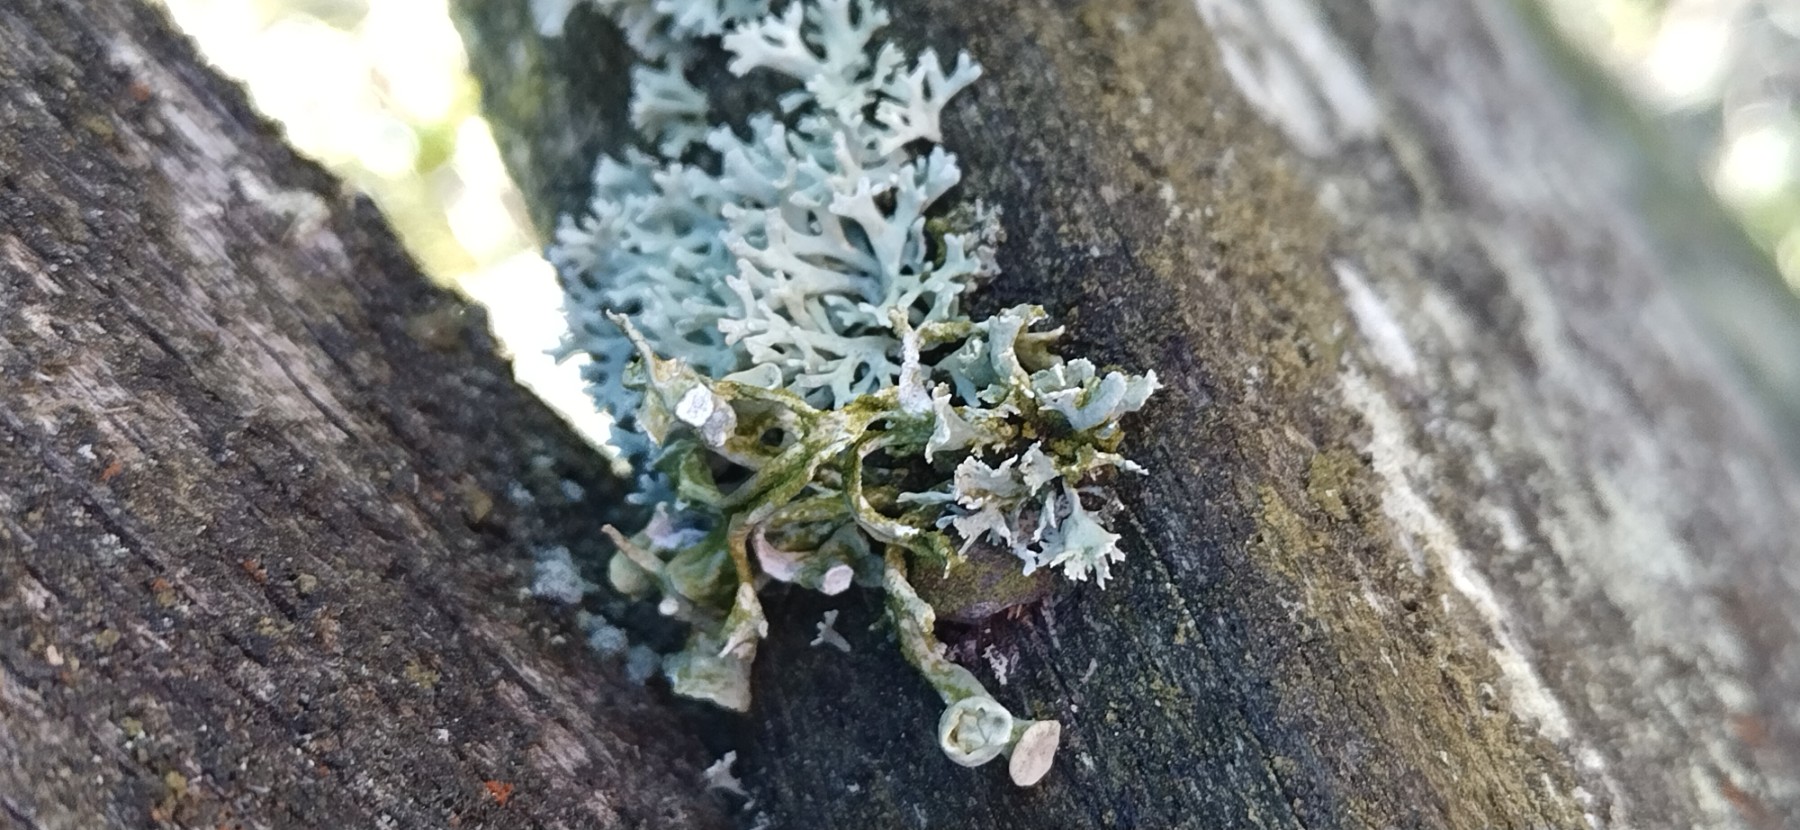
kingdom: Fungi
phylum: Ascomycota
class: Lecanoromycetes
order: Lecanorales
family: Ramalinaceae
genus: Ramalina
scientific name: Ramalina fastigiata
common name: tue-grenlav
